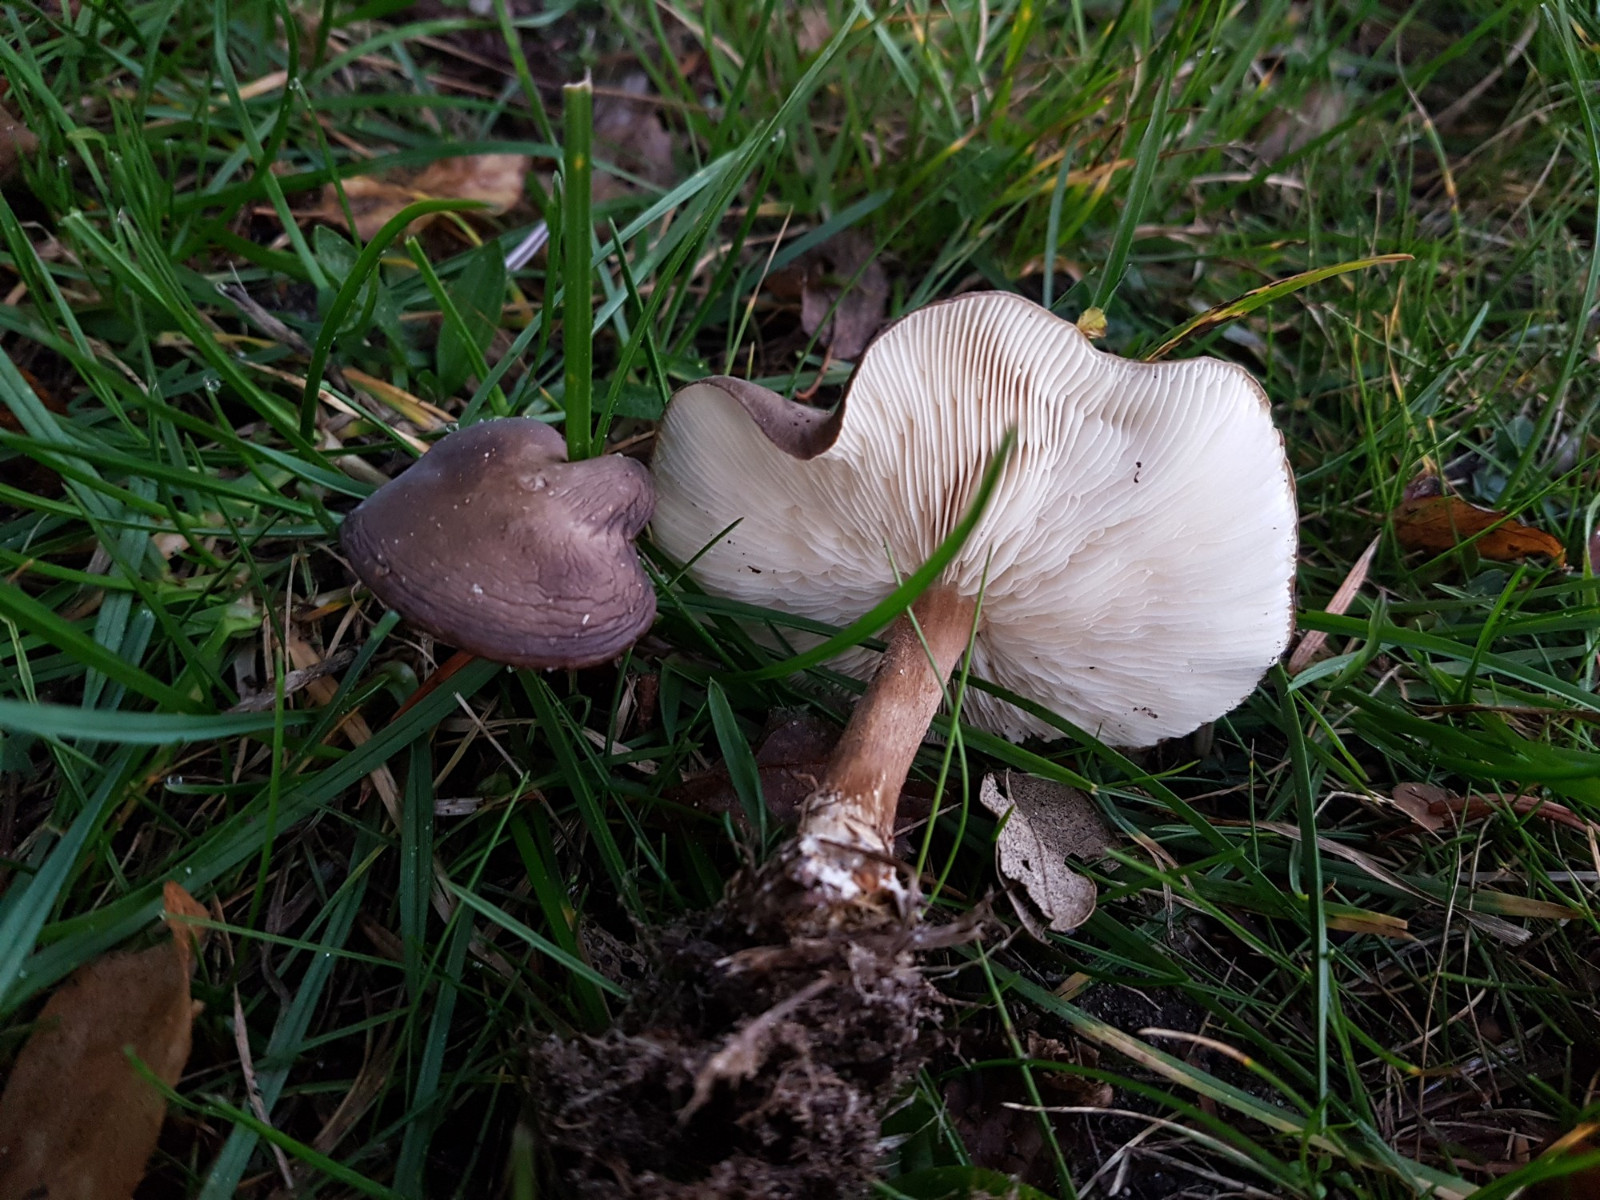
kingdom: Fungi
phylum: Basidiomycota
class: Agaricomycetes
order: Agaricales
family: Tricholomataceae
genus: Melanoleuca
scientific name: Melanoleuca
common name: munkehat
